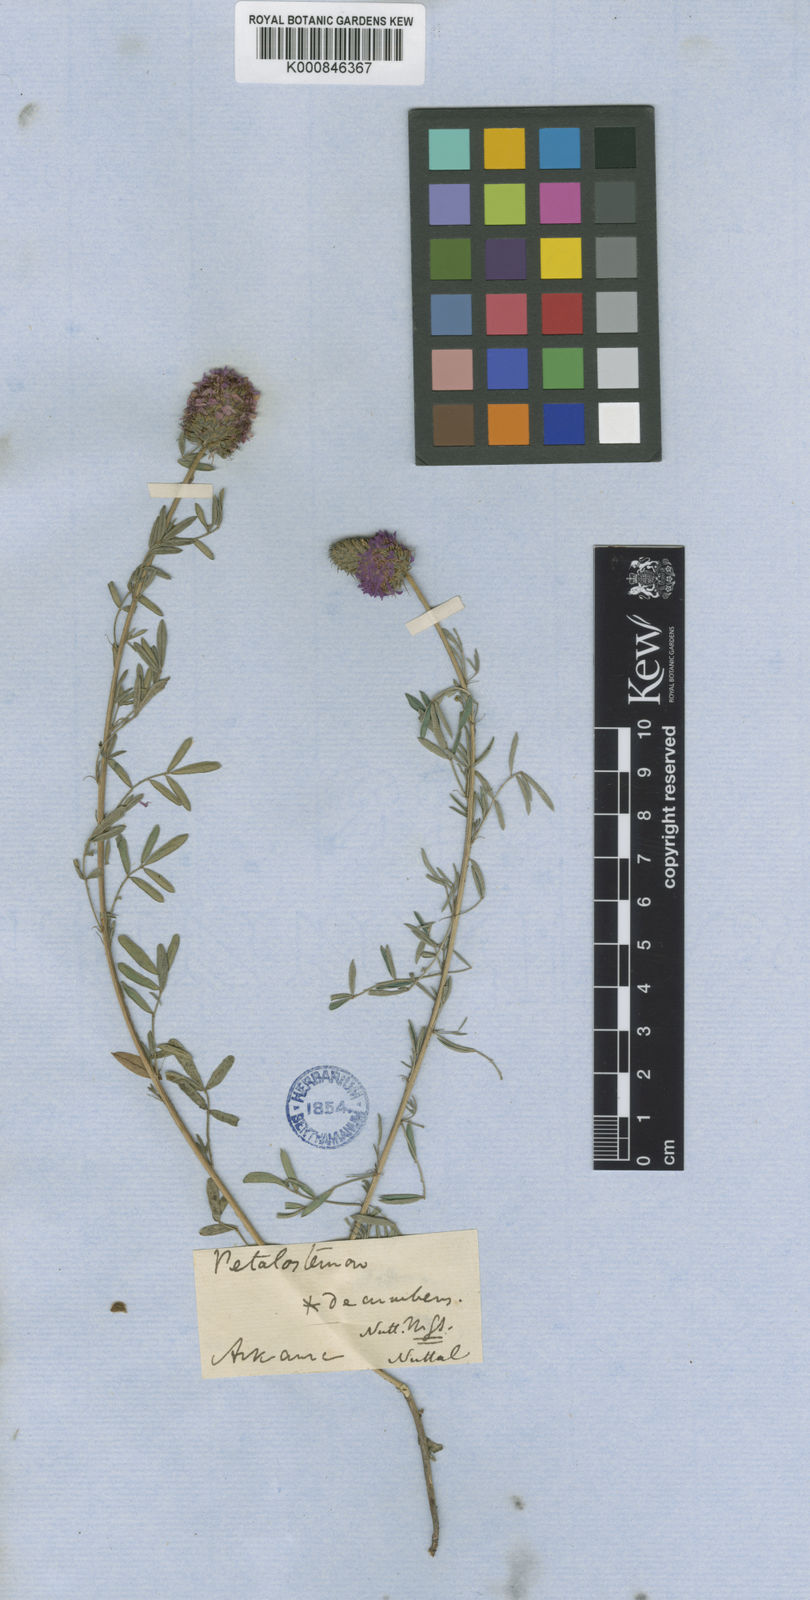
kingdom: Plantae
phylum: Tracheophyta
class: Magnoliopsida
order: Fabales
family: Fabaceae
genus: Dalea
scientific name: Dalea compacta
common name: Compact prairie-clover
